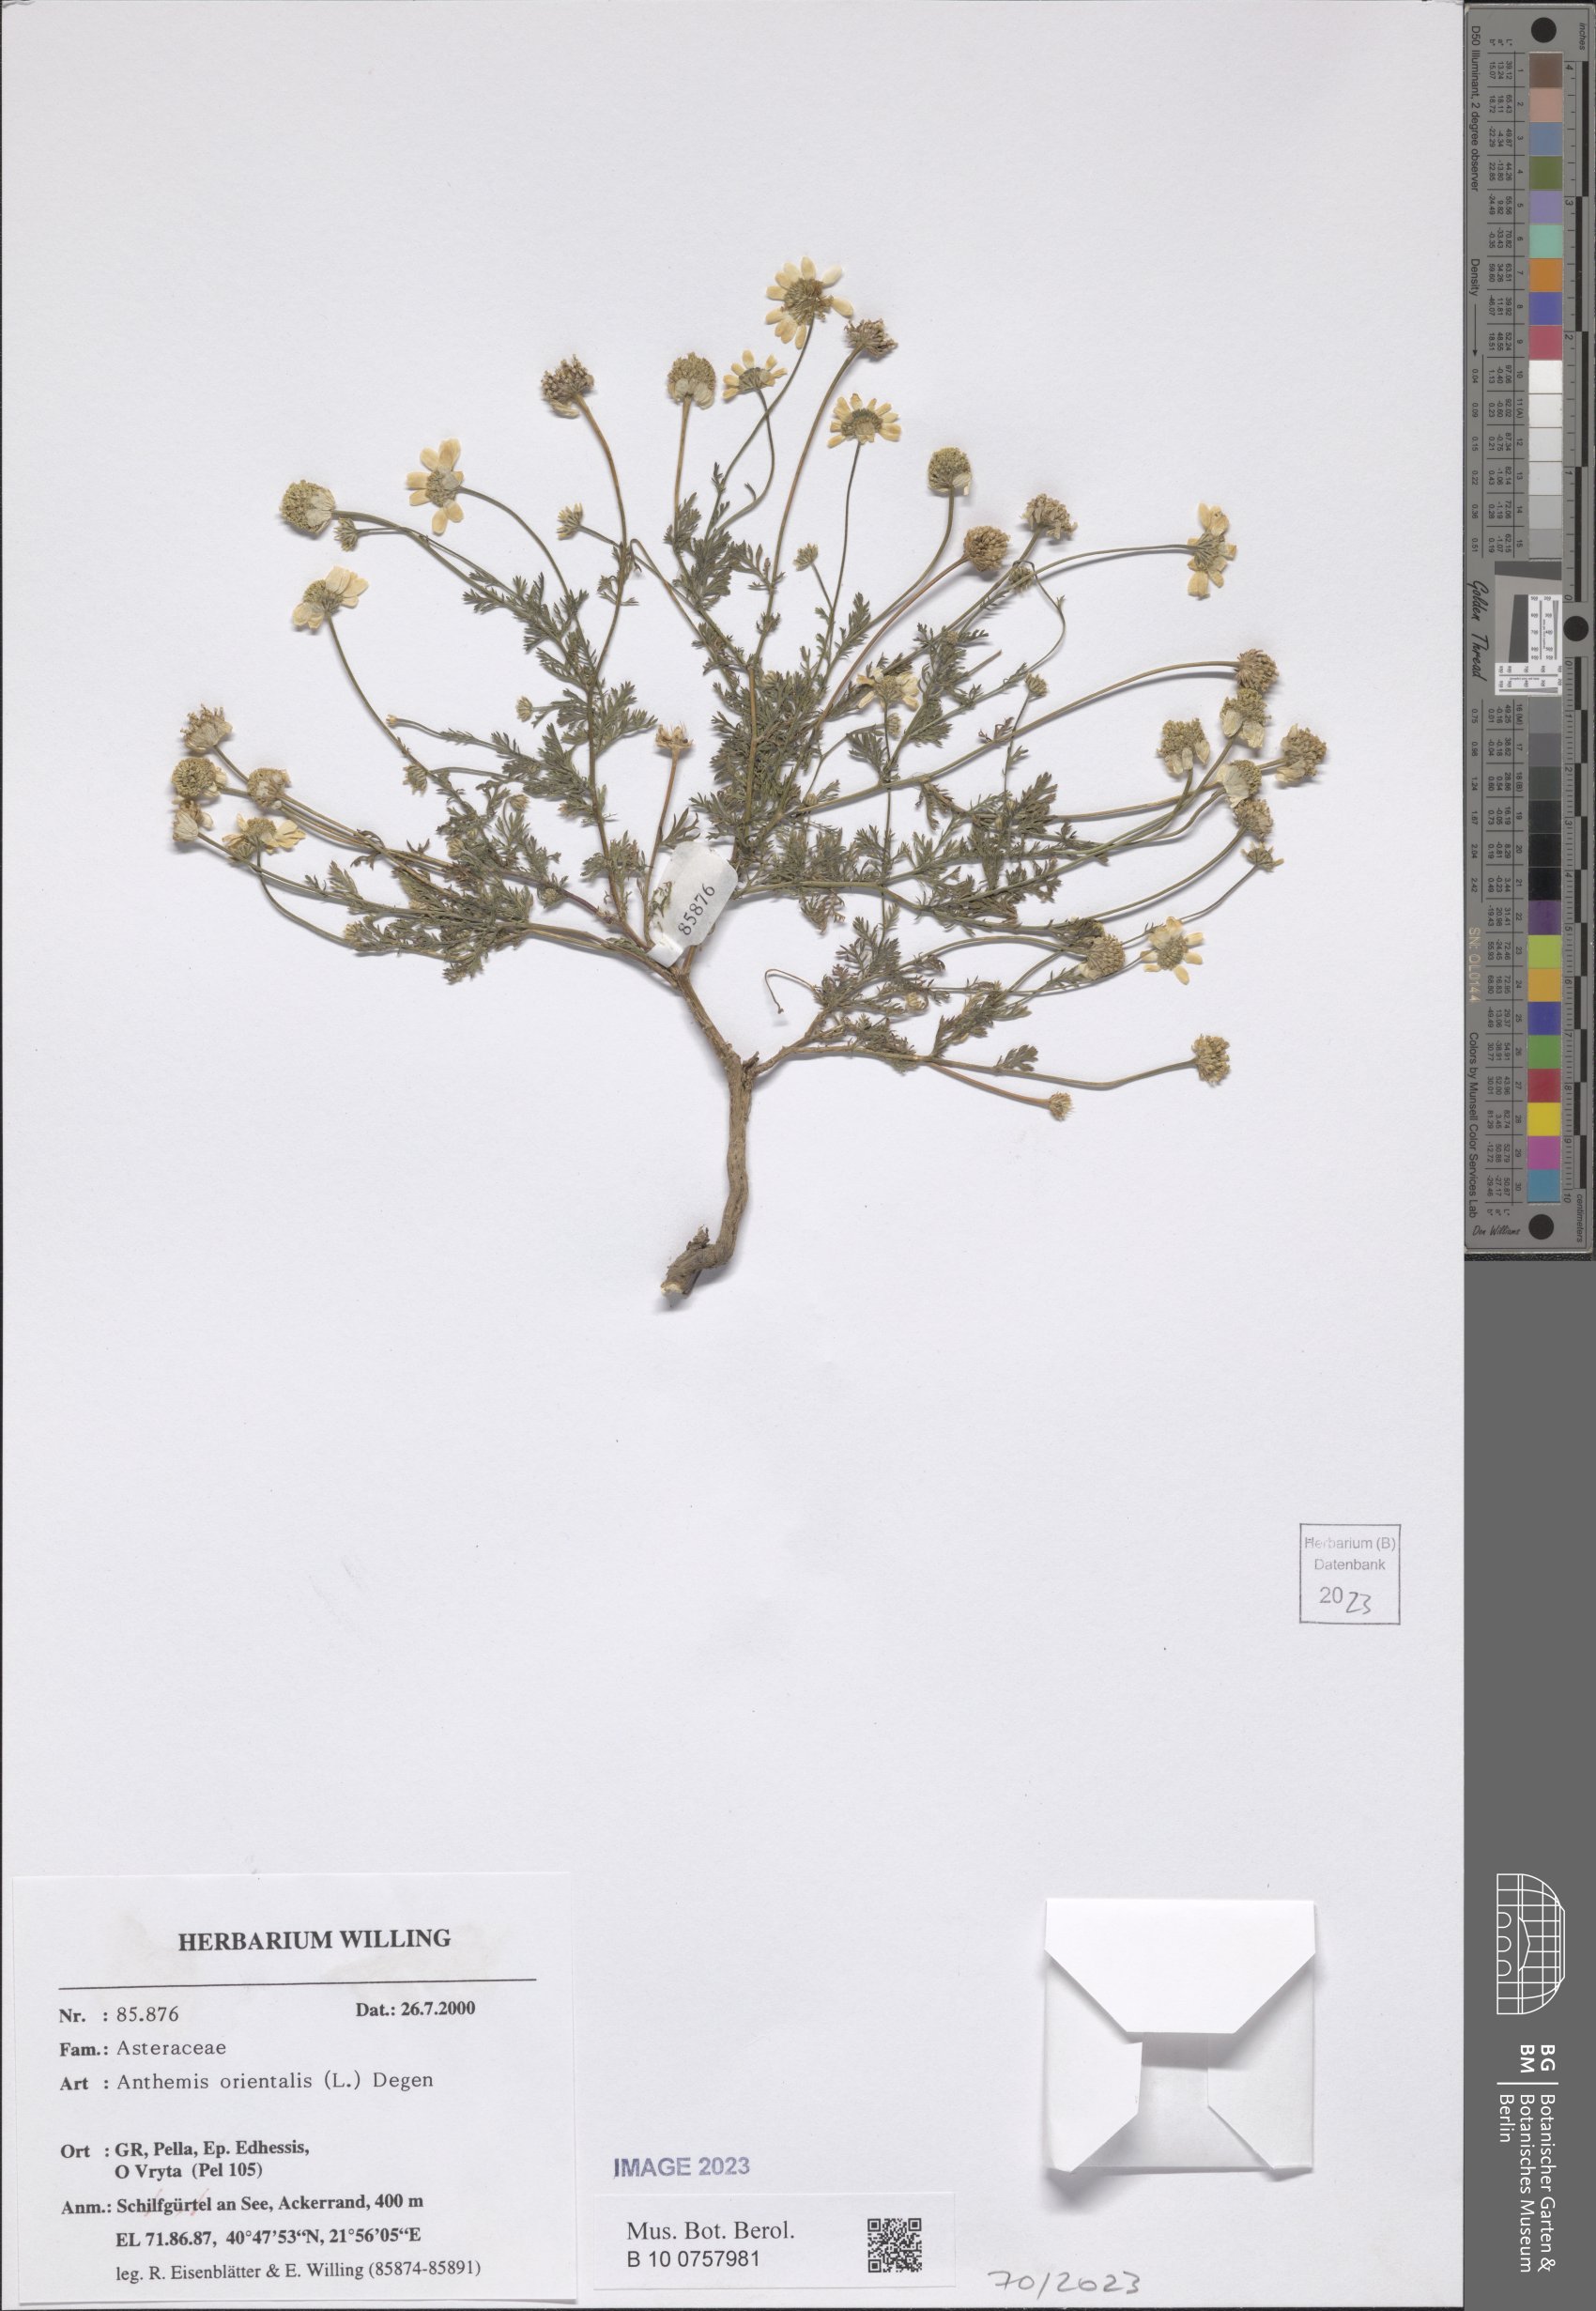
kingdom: Plantae
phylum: Tracheophyta
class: Magnoliopsida
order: Asterales
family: Asteraceae
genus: Anthemis
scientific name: Anthemis orientalis
